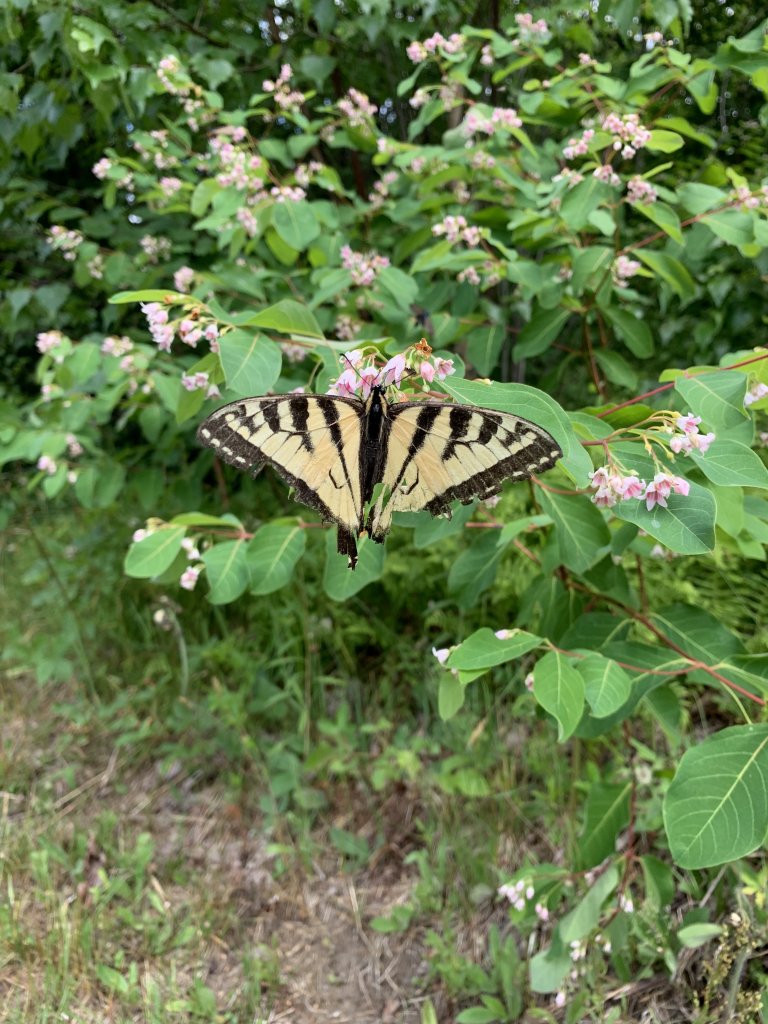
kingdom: Animalia
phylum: Arthropoda
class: Insecta
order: Lepidoptera
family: Papilionidae
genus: Pterourus
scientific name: Pterourus canadensis
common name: Canadian Tiger Swallowtail
